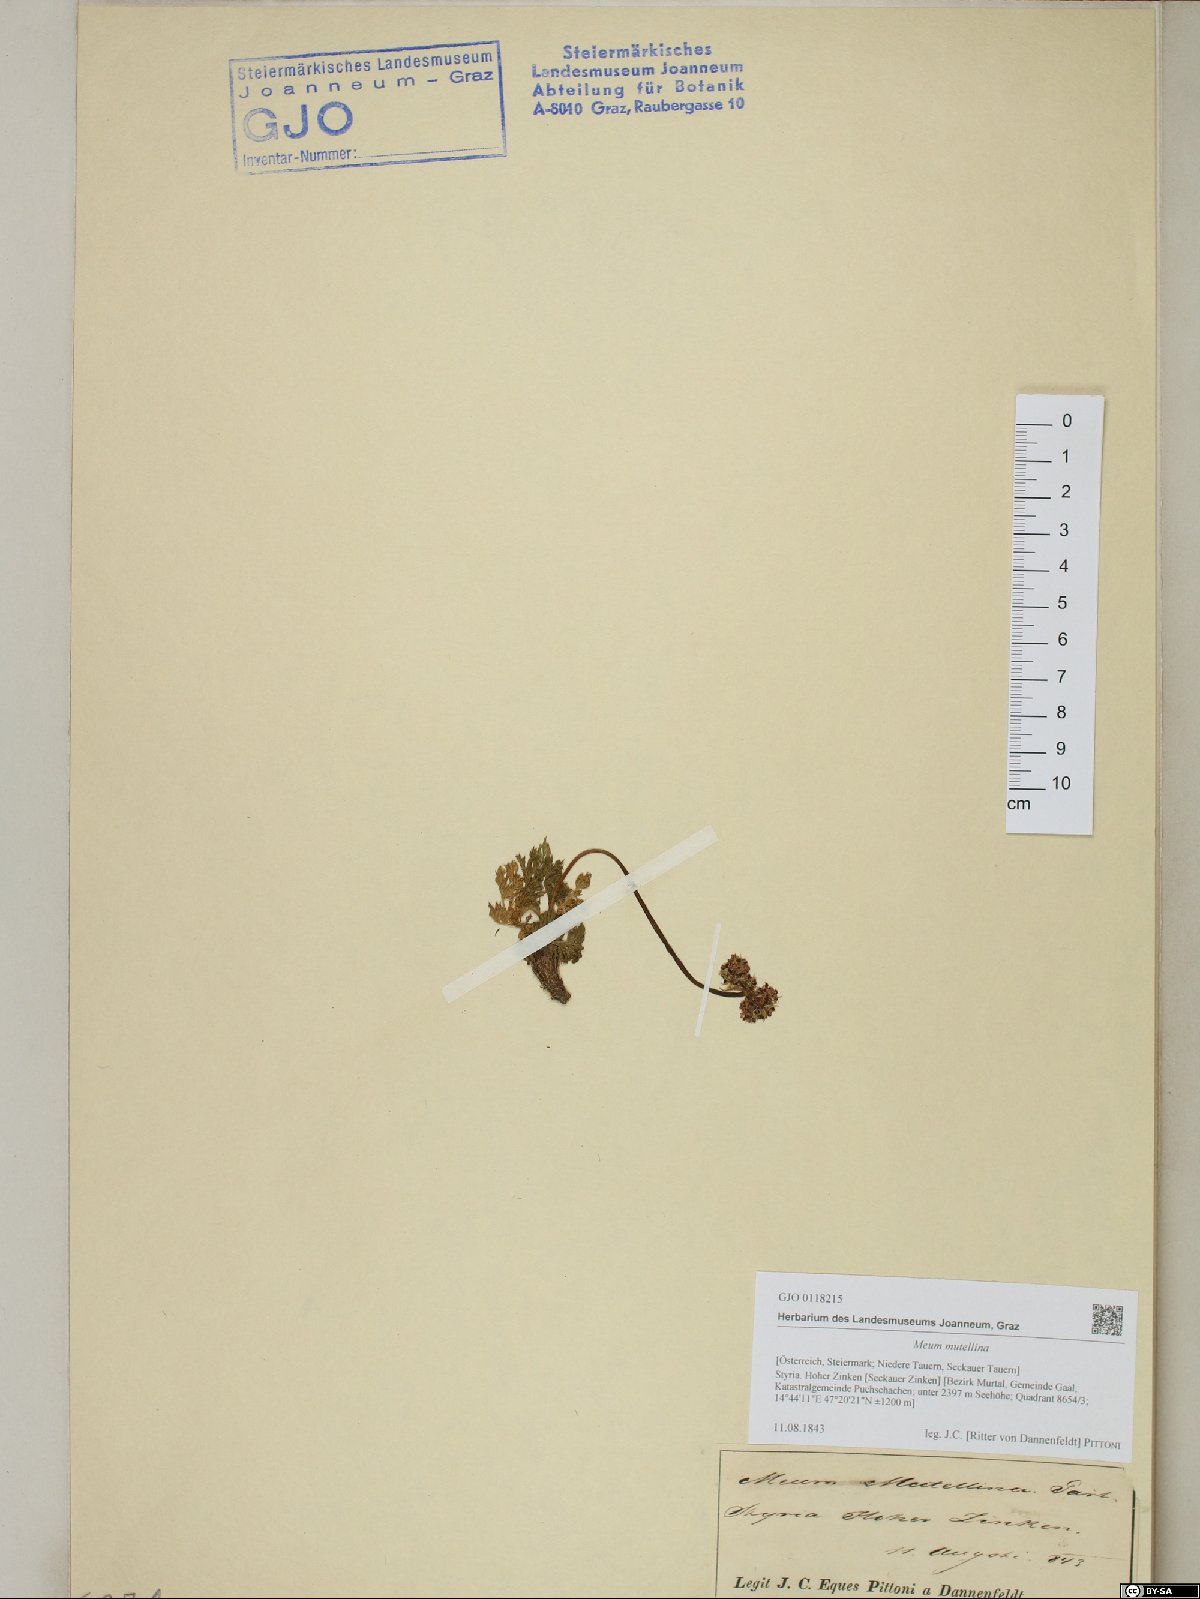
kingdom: Plantae
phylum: Tracheophyta
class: Magnoliopsida
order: Apiales
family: Apiaceae
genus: Mutellina
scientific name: Mutellina adonidifolia
